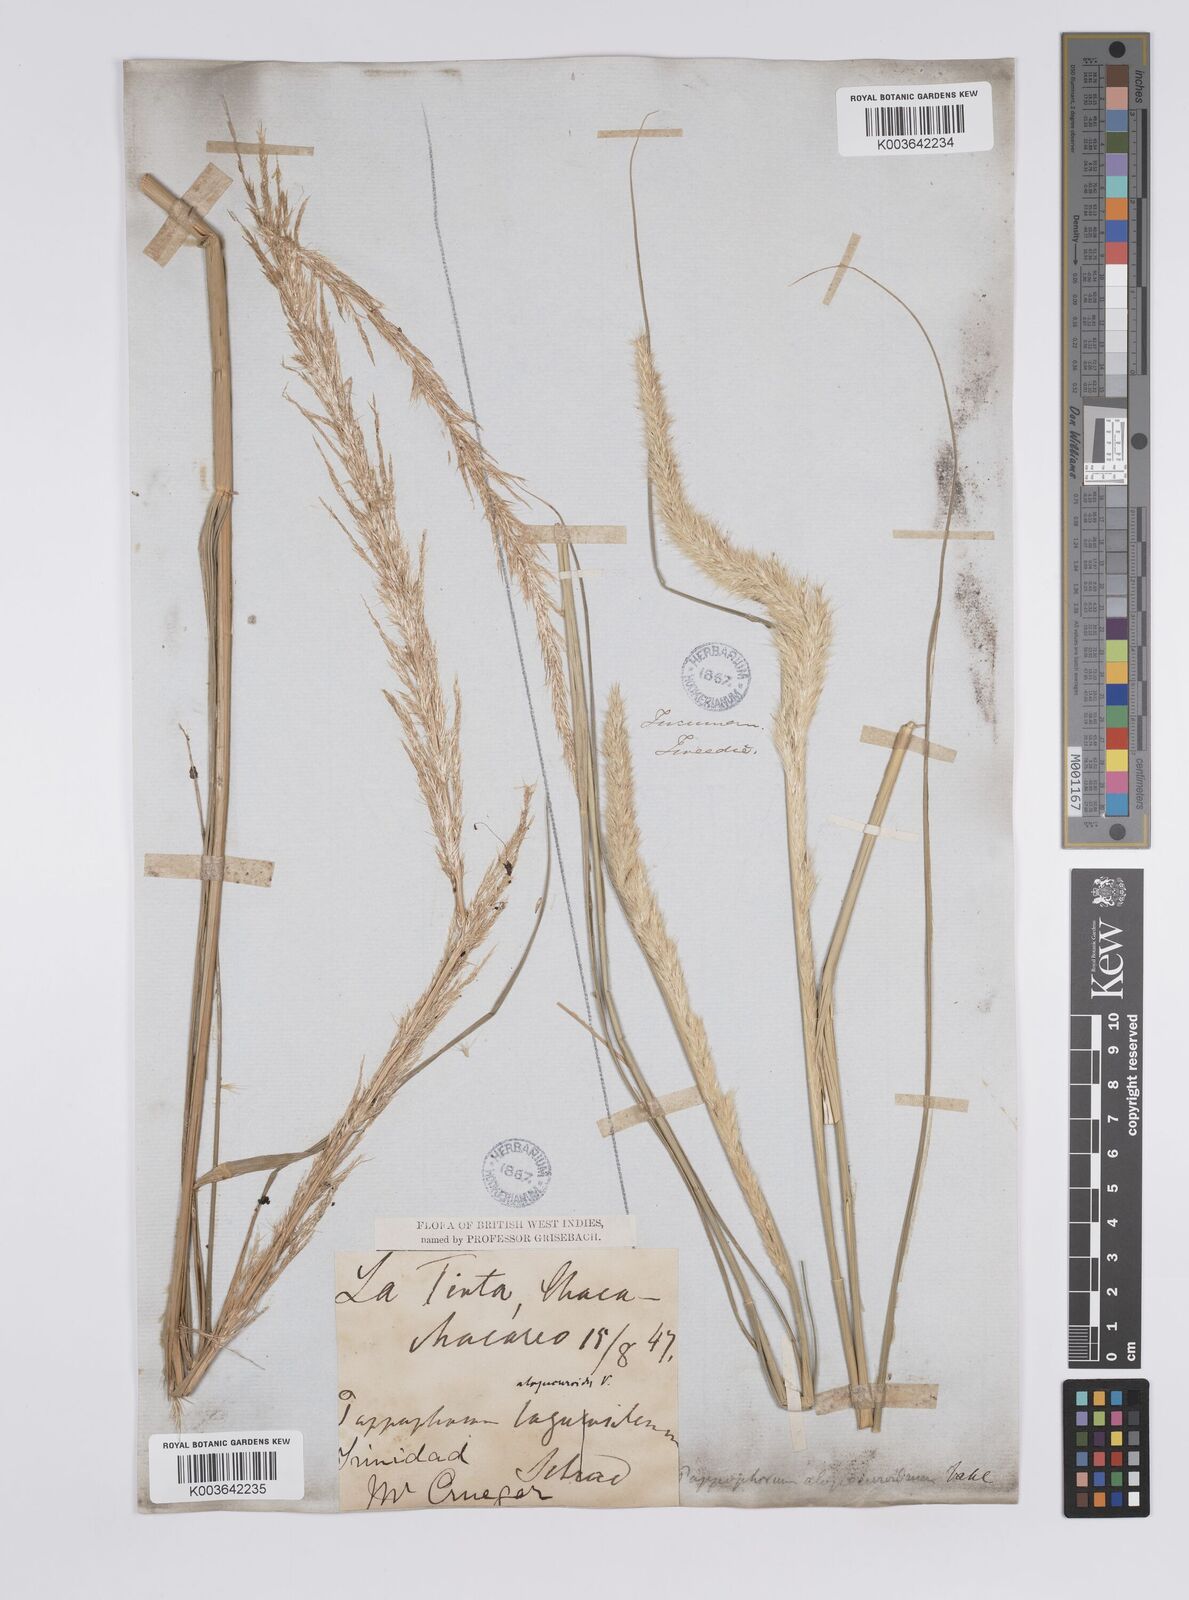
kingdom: Plantae
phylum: Tracheophyta
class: Liliopsida
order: Poales
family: Poaceae
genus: Pappophorum
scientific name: Pappophorum pappiferum
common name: Crabgrass
